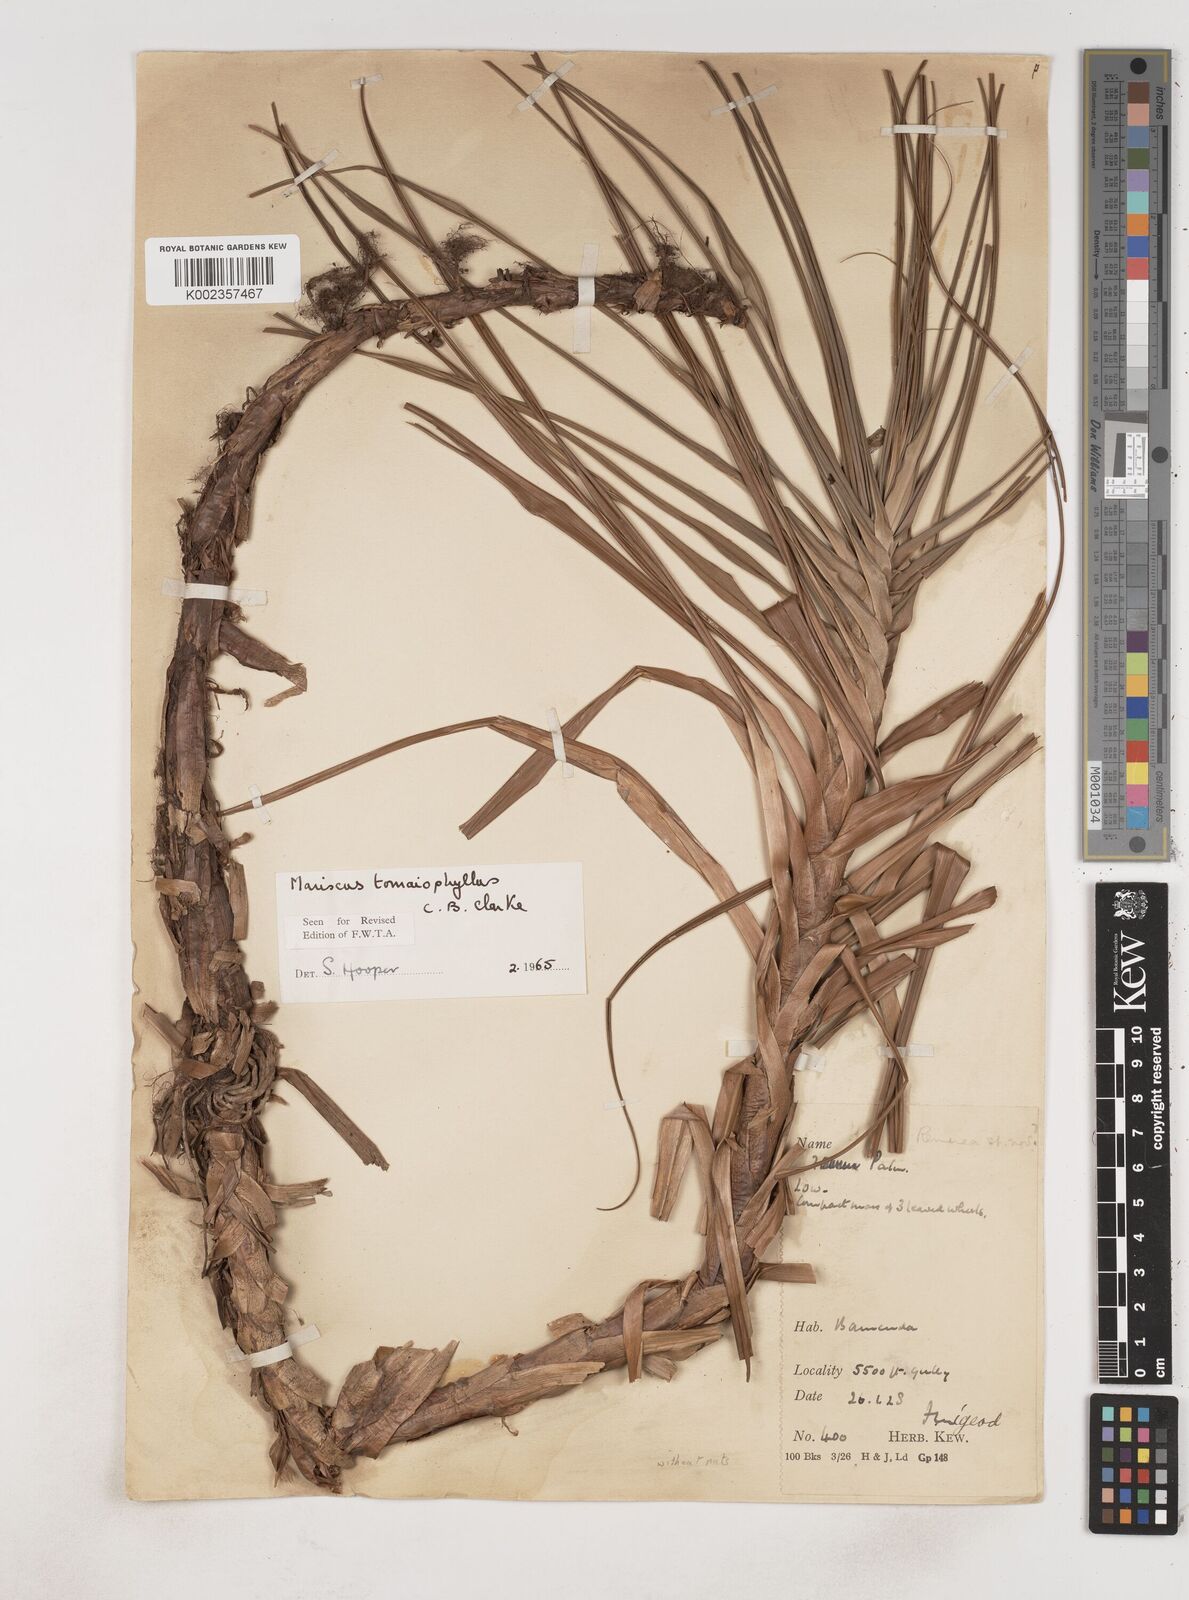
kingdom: Plantae
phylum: Tracheophyta
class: Liliopsida
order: Poales
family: Cyperaceae
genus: Cyperus
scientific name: Cyperus tomaiophyllus
